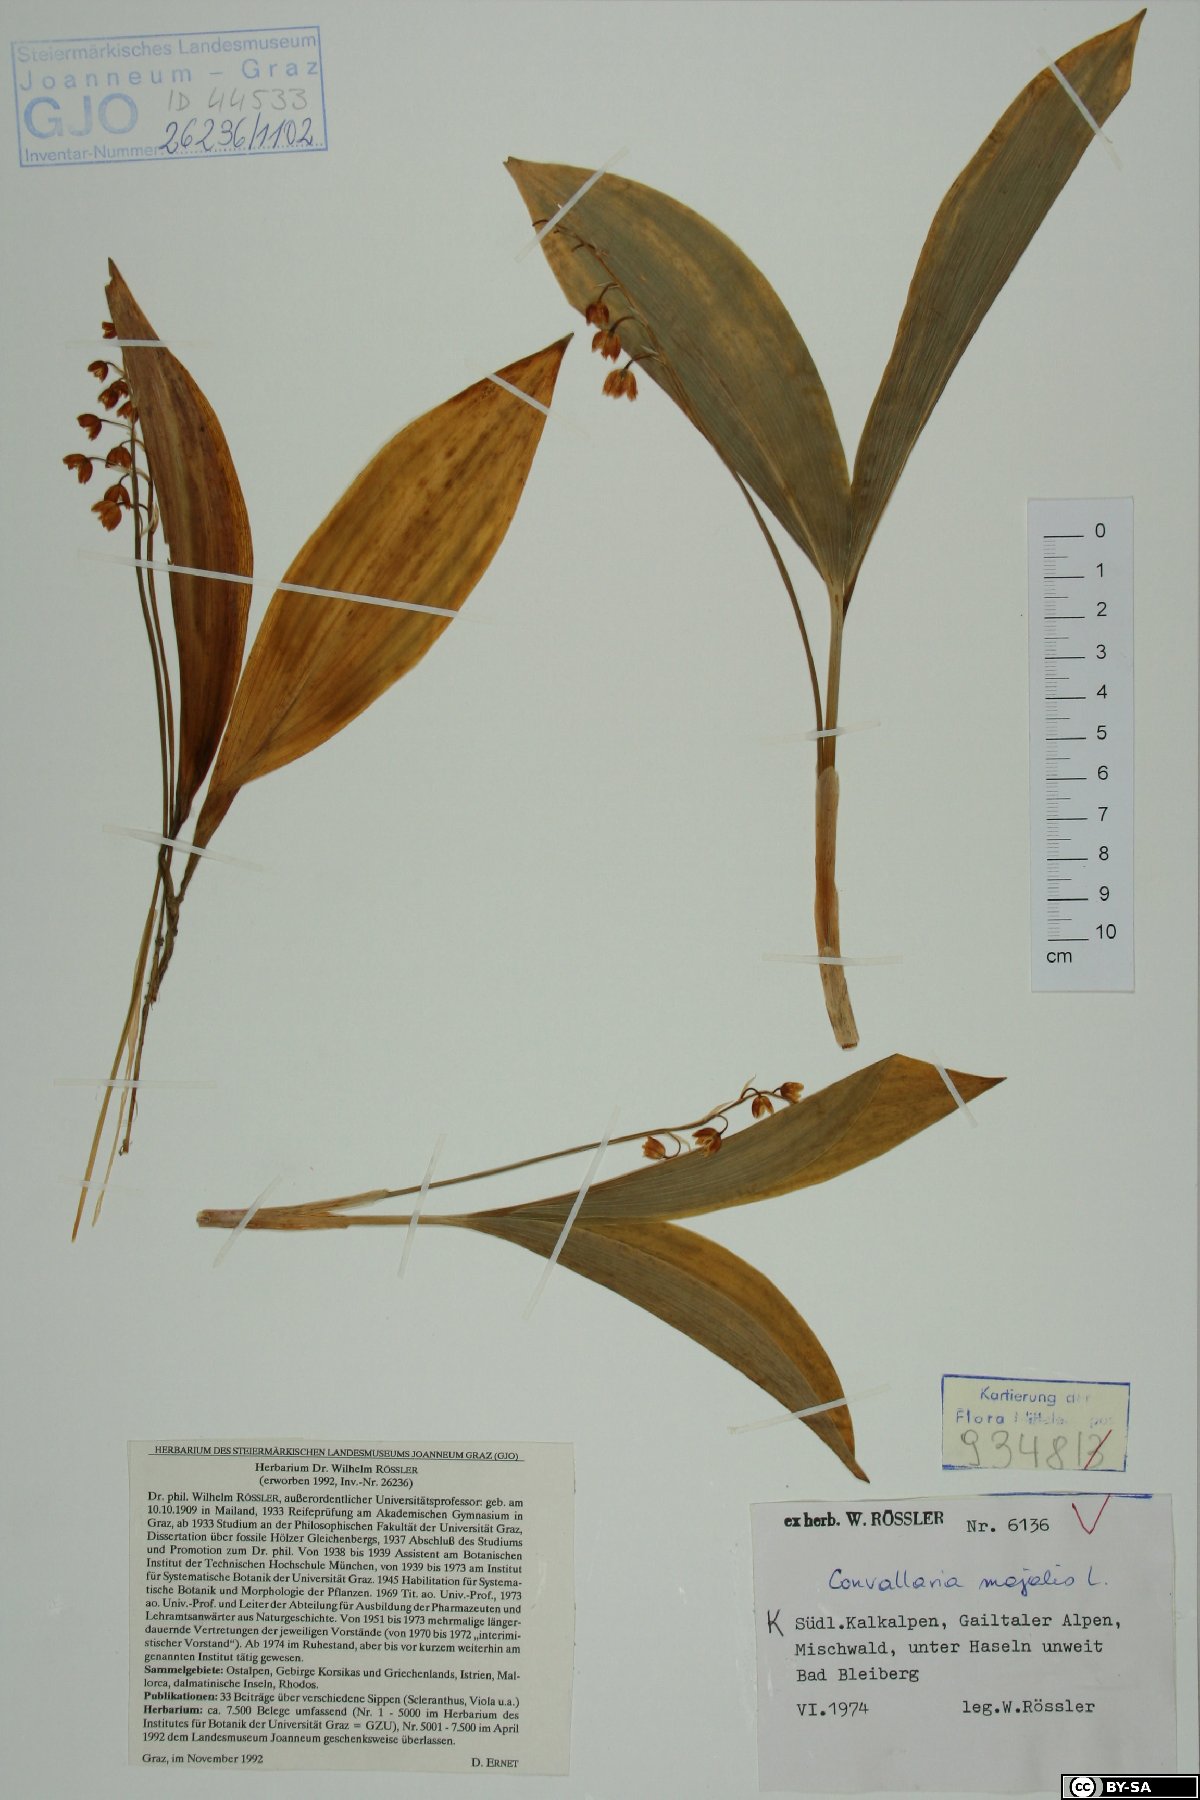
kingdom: Plantae
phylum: Tracheophyta
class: Liliopsida
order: Asparagales
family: Asparagaceae
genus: Convallaria
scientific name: Convallaria majalis
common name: Lily-of-the-valley
